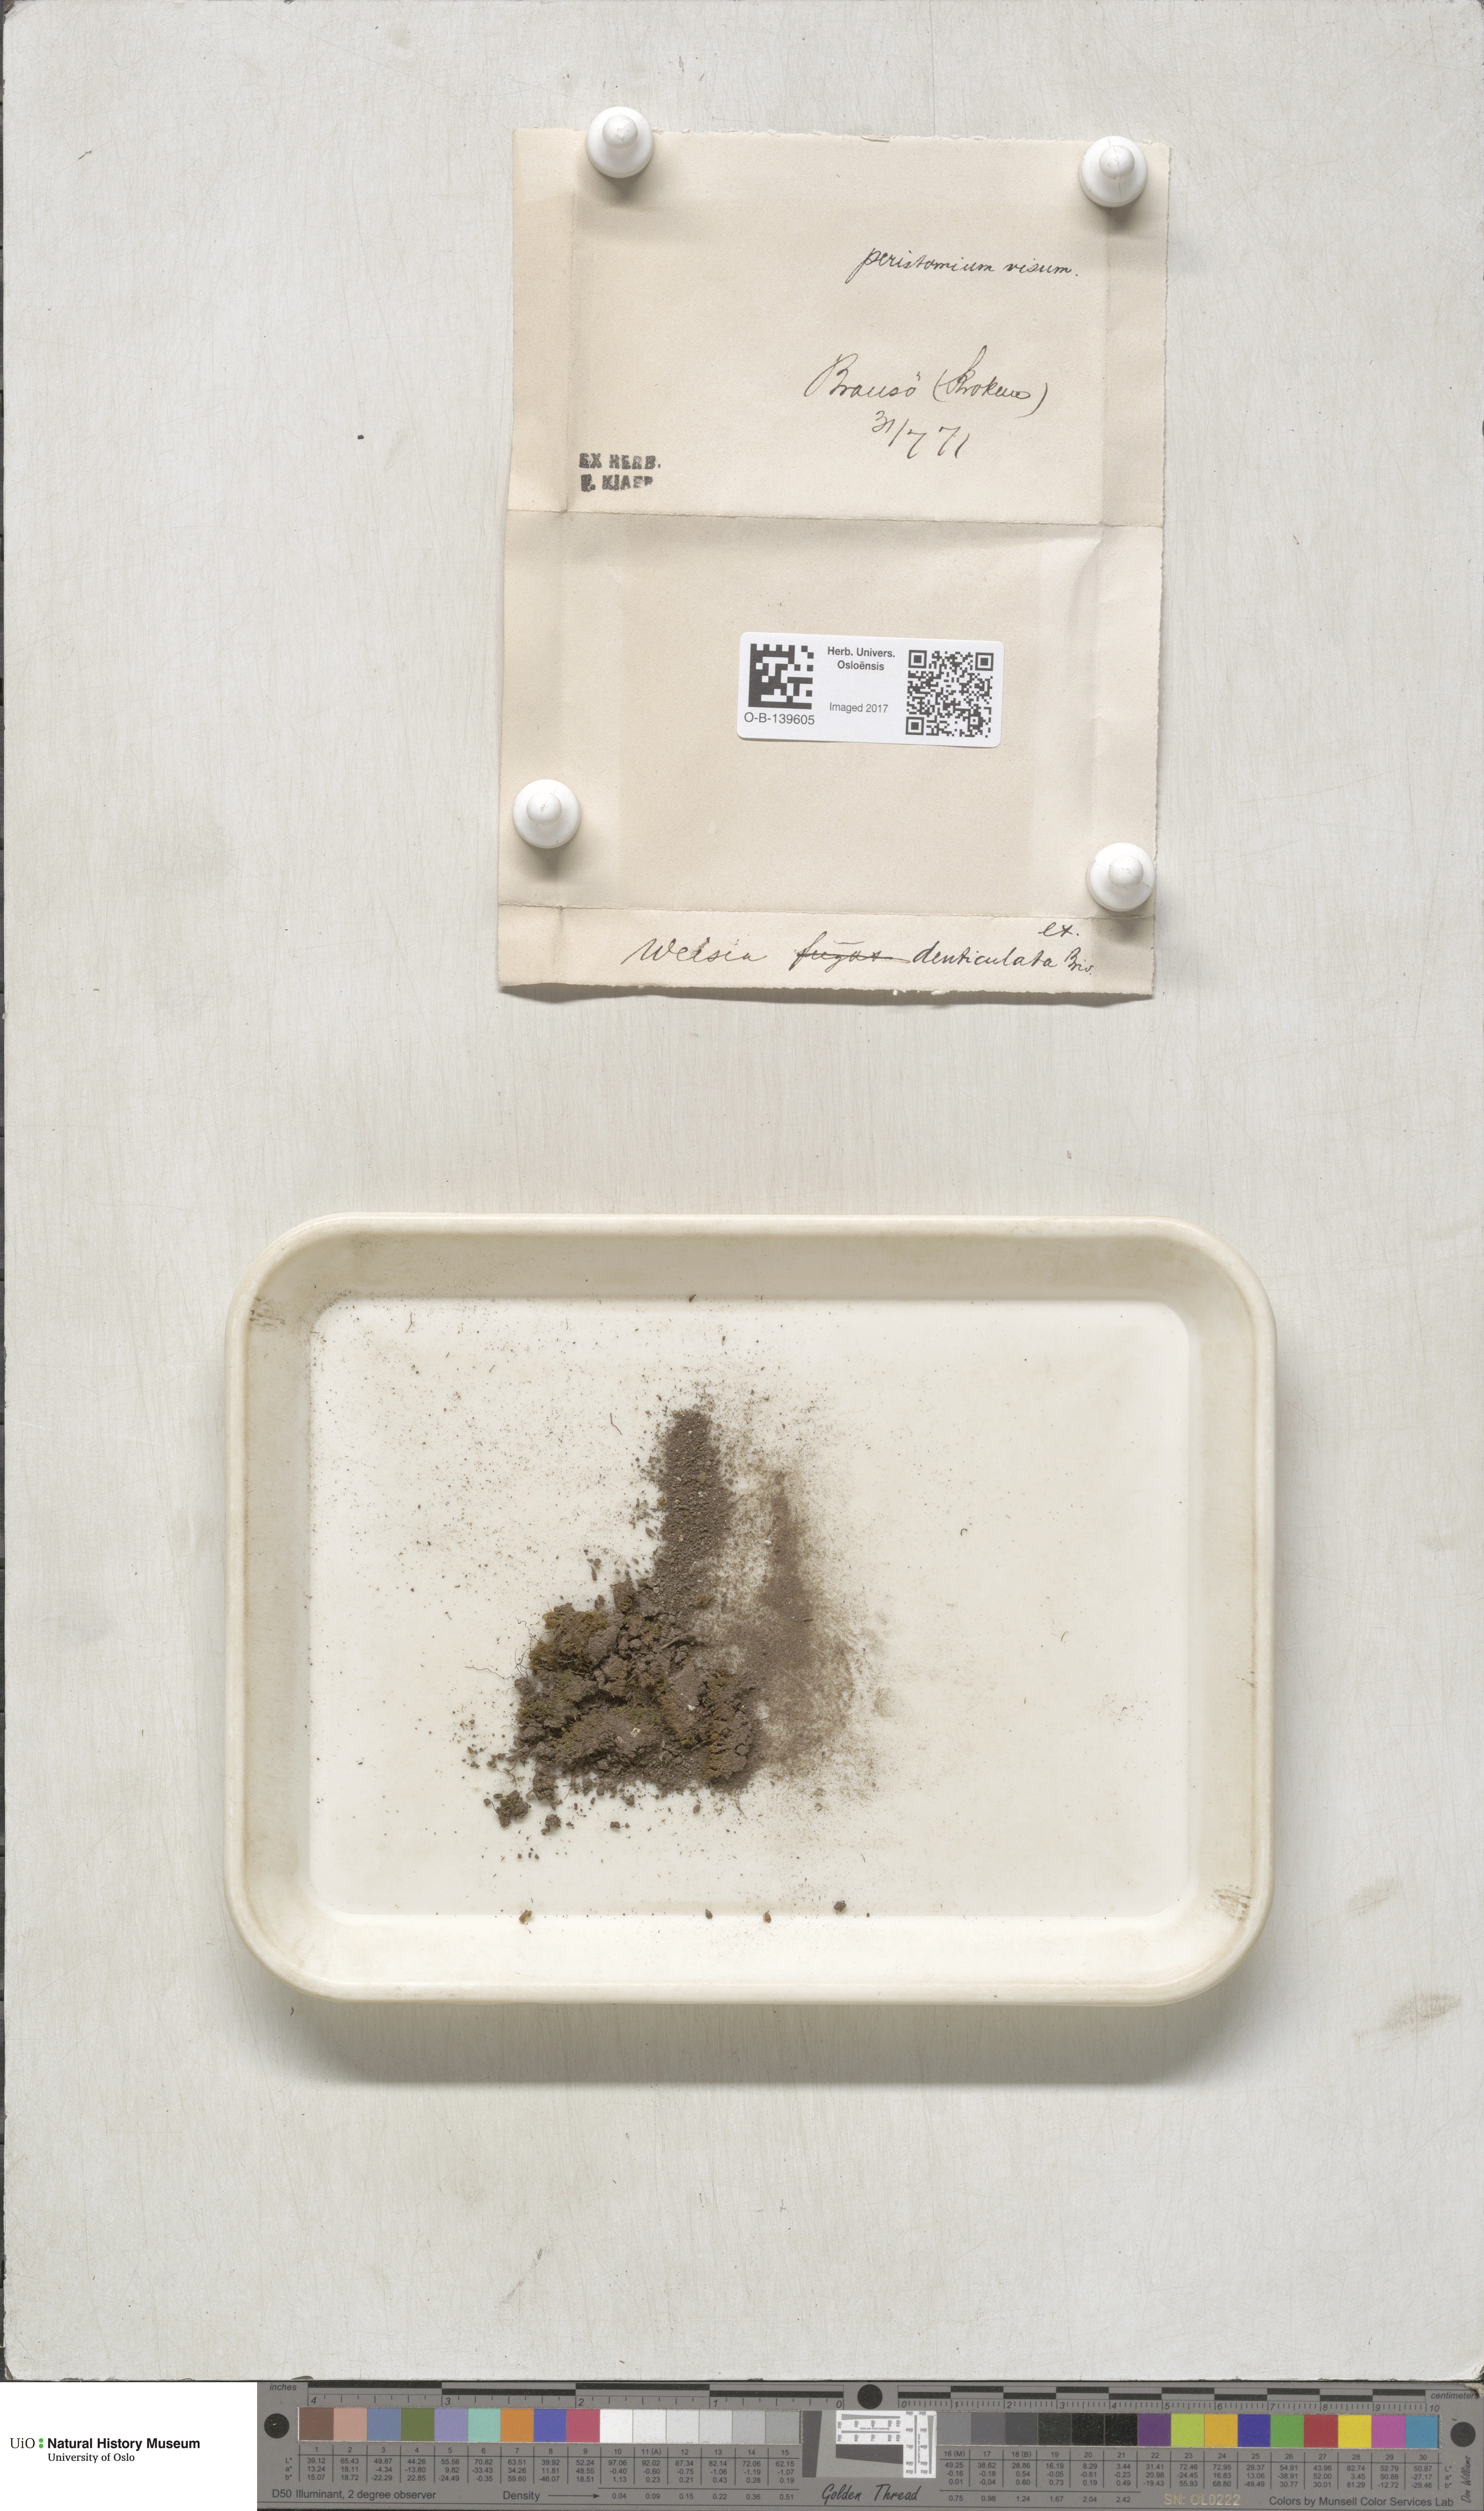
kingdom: Plantae
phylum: Bryophyta
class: Bryopsida
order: Dicranales
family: Rhabdoweisiaceae
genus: Rhabdoweisia
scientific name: Rhabdoweisia crispata
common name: Fine-toothed streak moss
